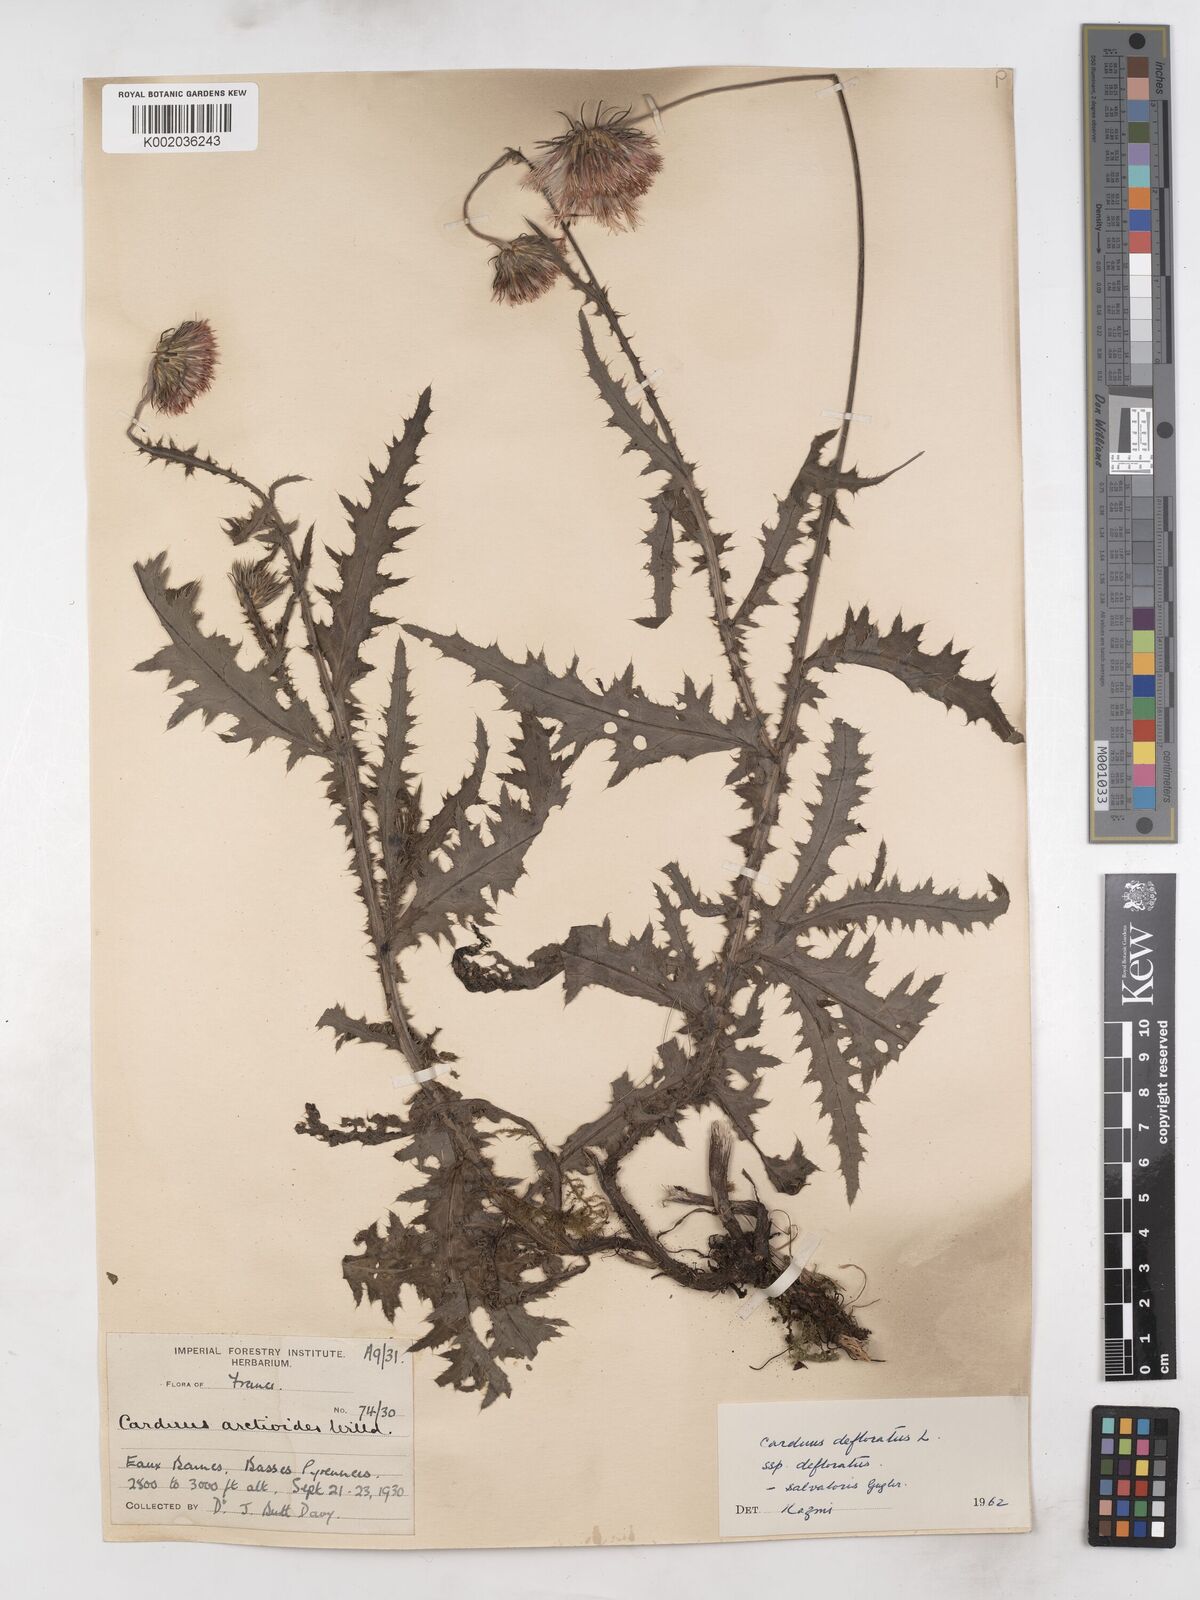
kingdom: Plantae
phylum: Tracheophyta
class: Magnoliopsida
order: Asterales
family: Asteraceae
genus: Carduus
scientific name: Carduus defloratus
